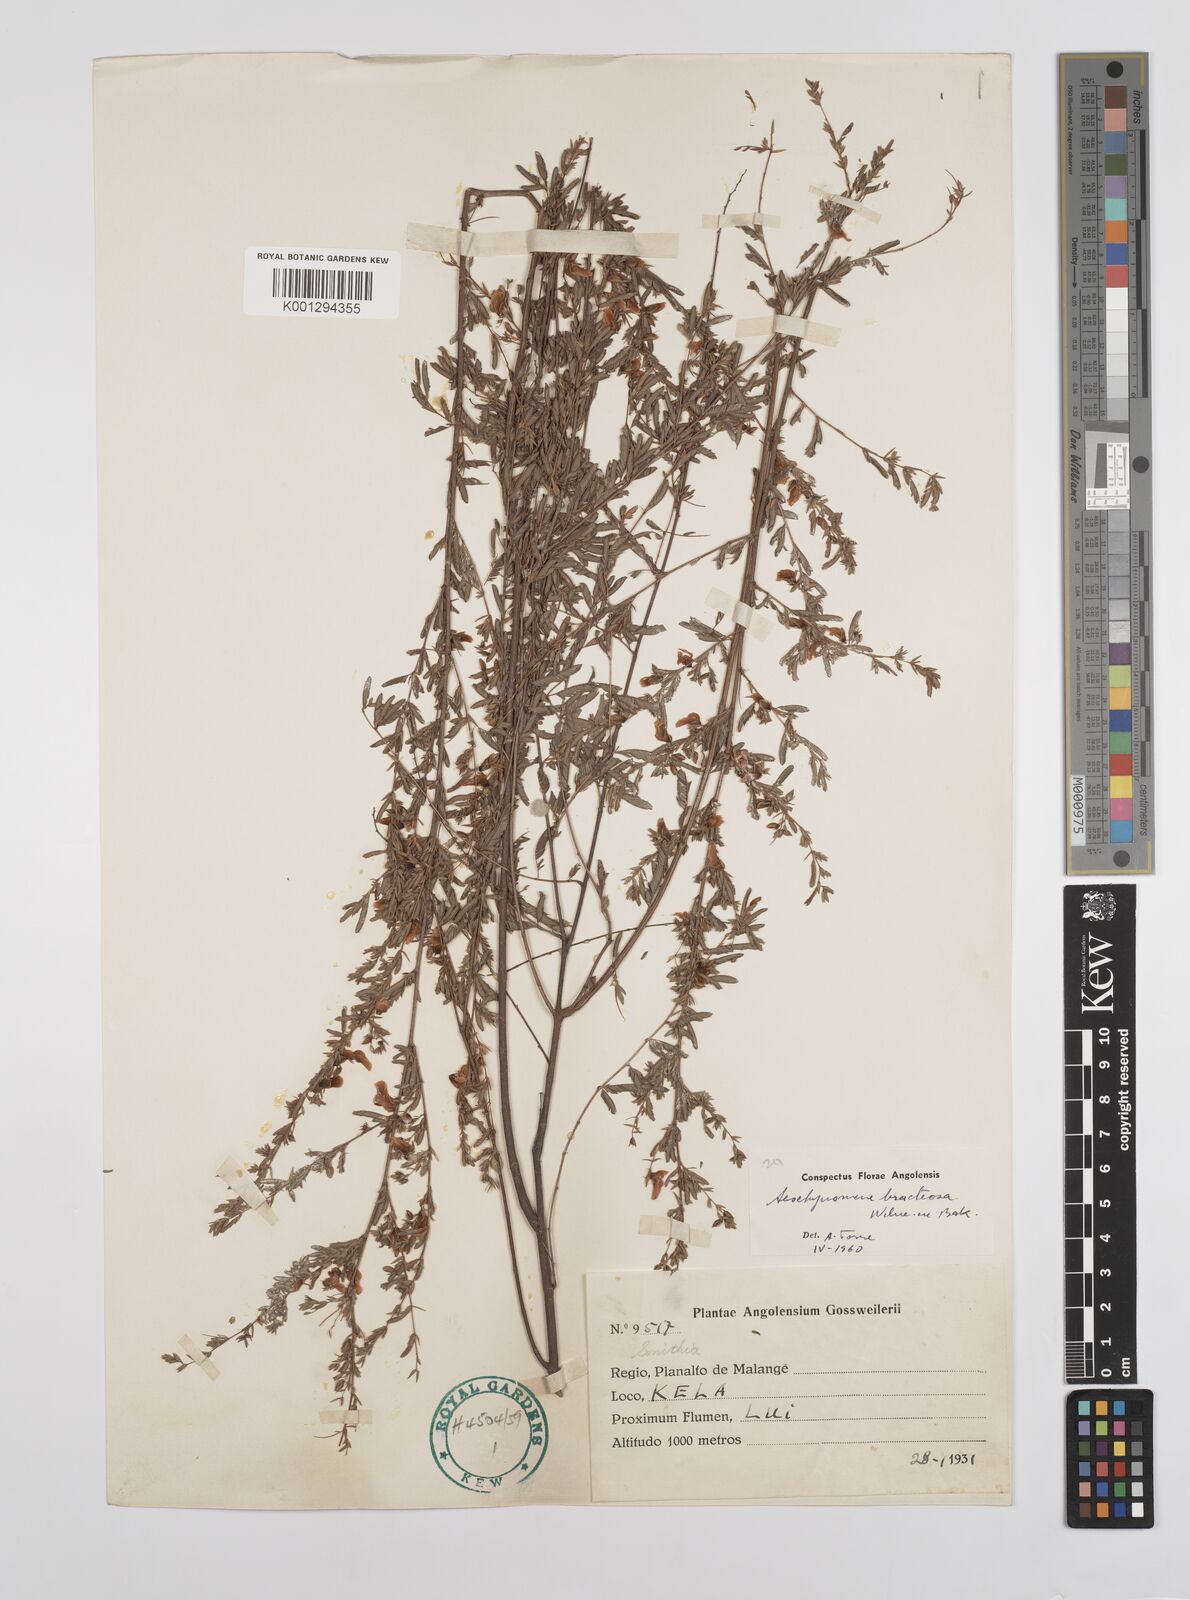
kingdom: Plantae
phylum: Tracheophyta
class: Magnoliopsida
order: Fabales
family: Fabaceae
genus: Aeschynomene
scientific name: Aeschynomene bracteosa
